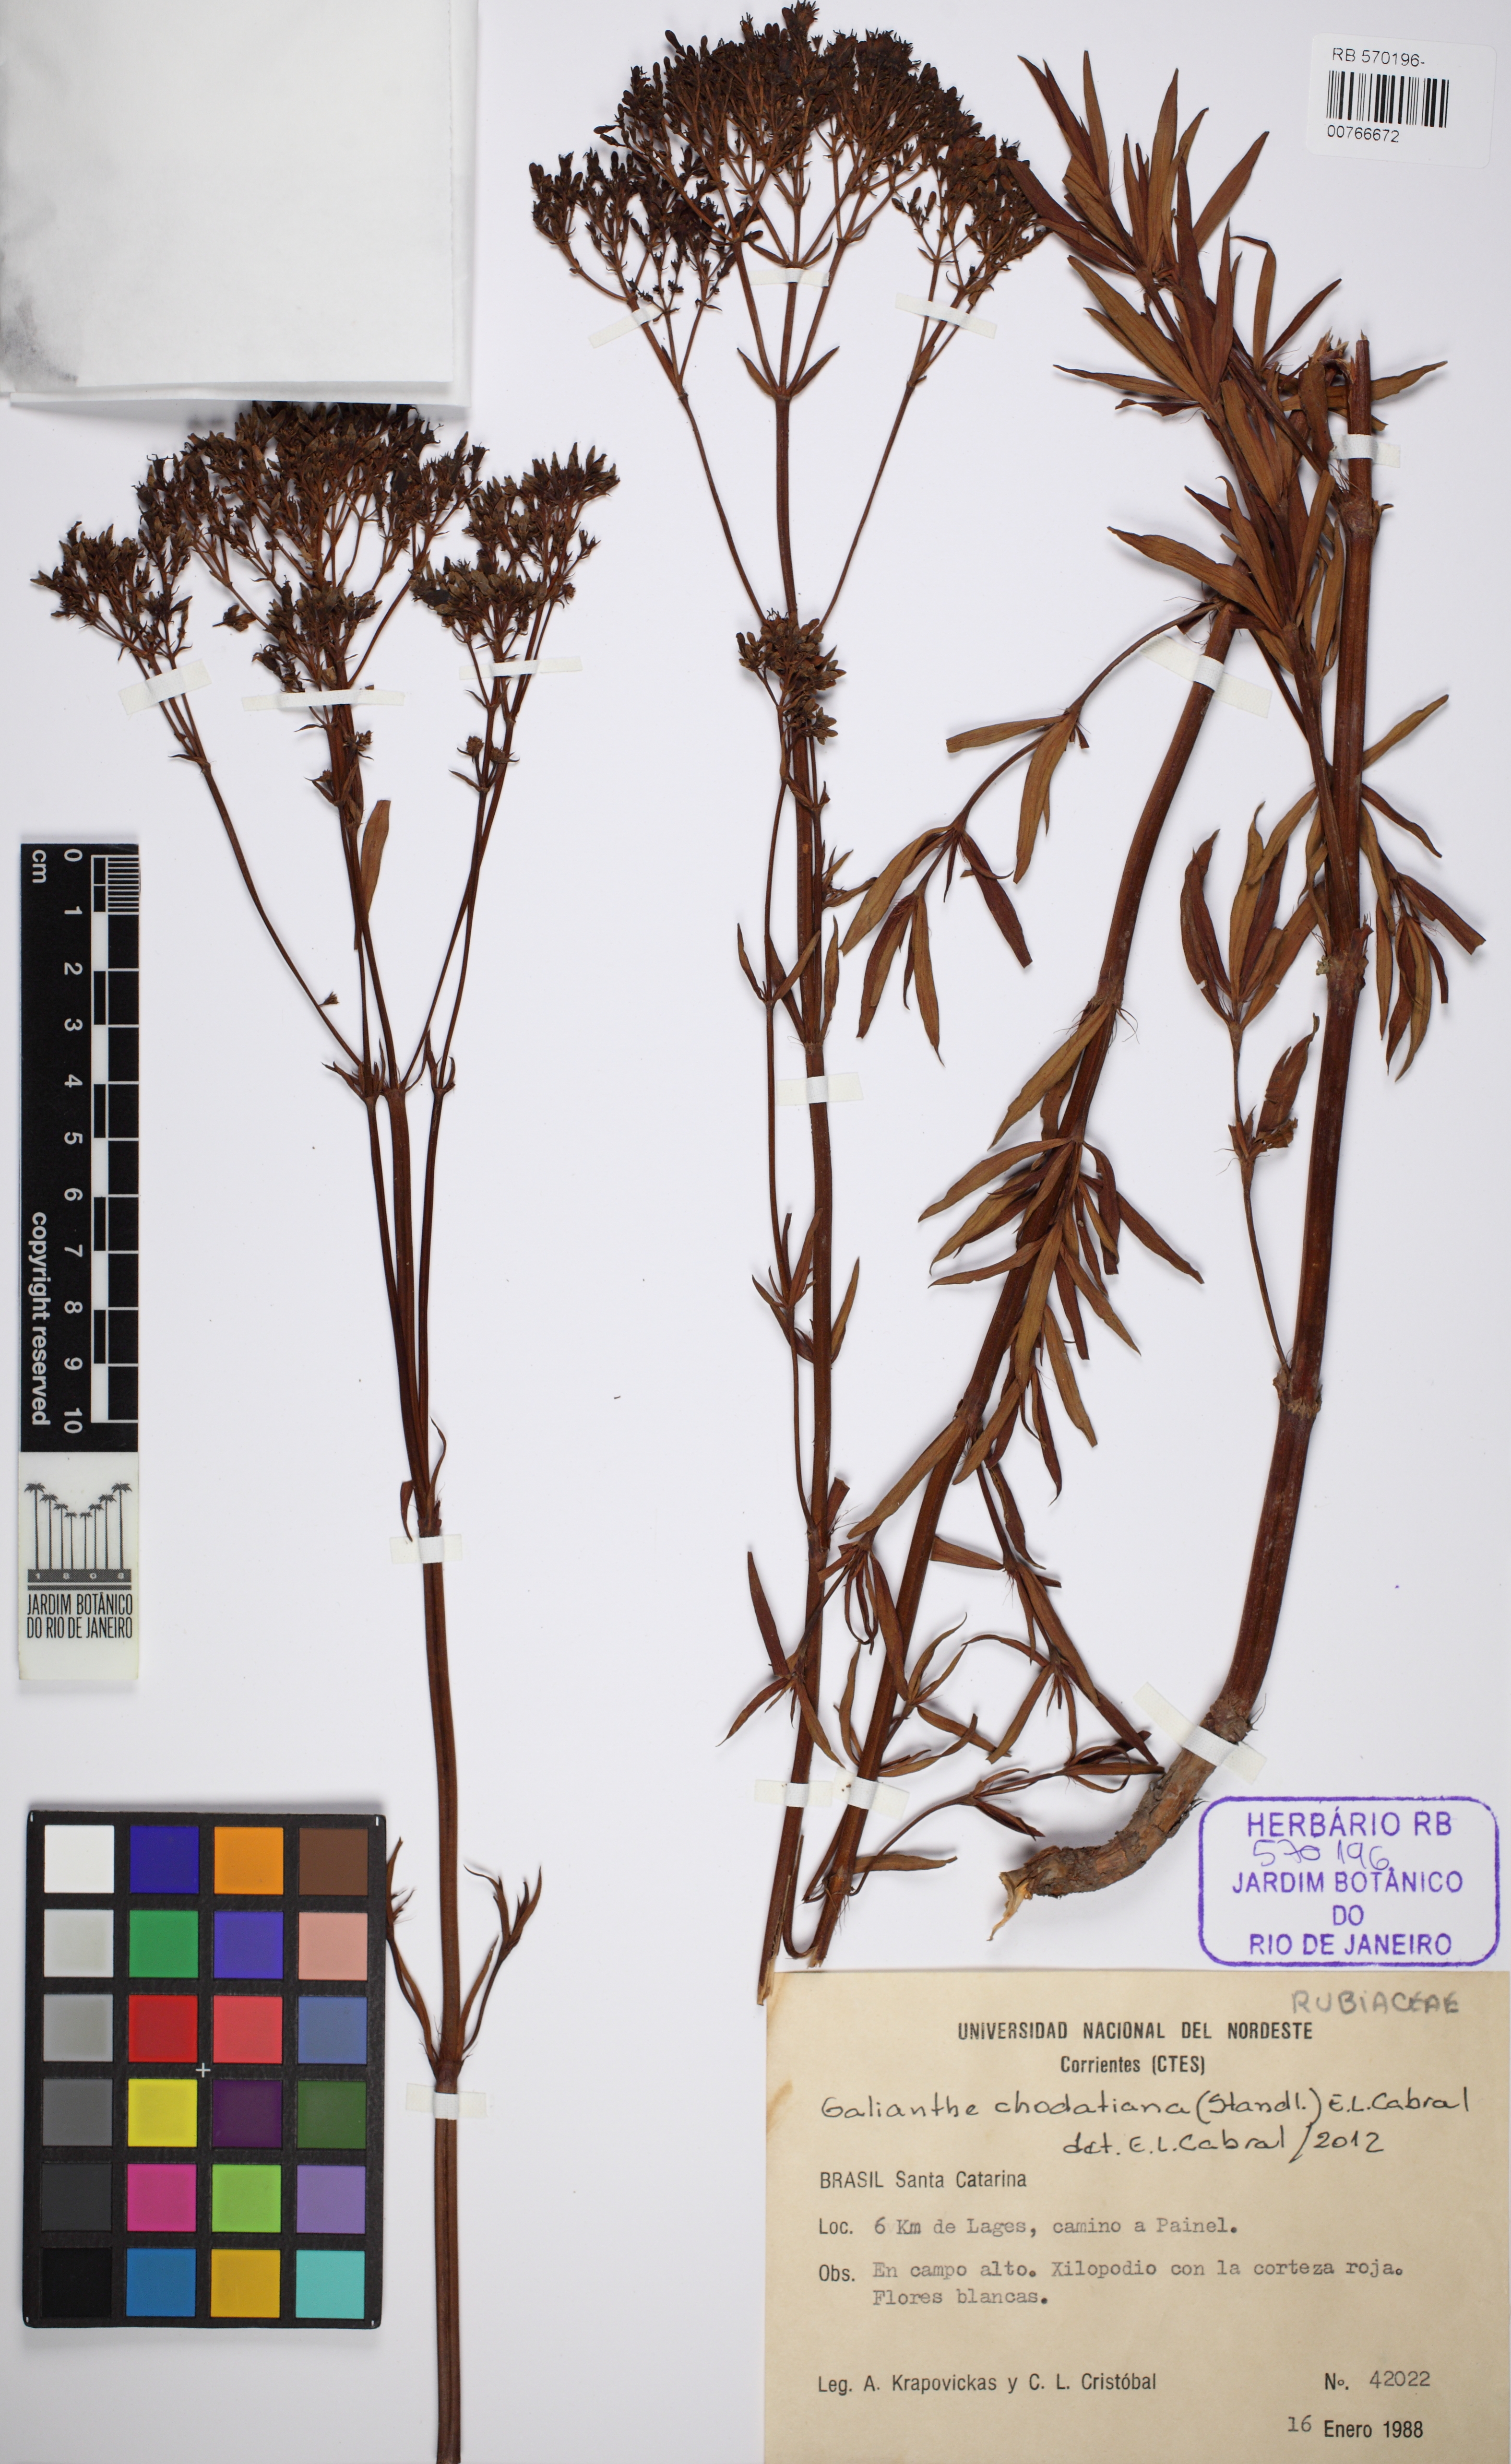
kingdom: Plantae
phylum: Tracheophyta
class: Magnoliopsida
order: Gentianales
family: Rubiaceae
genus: Galianthe
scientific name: Galianthe chodatiana
